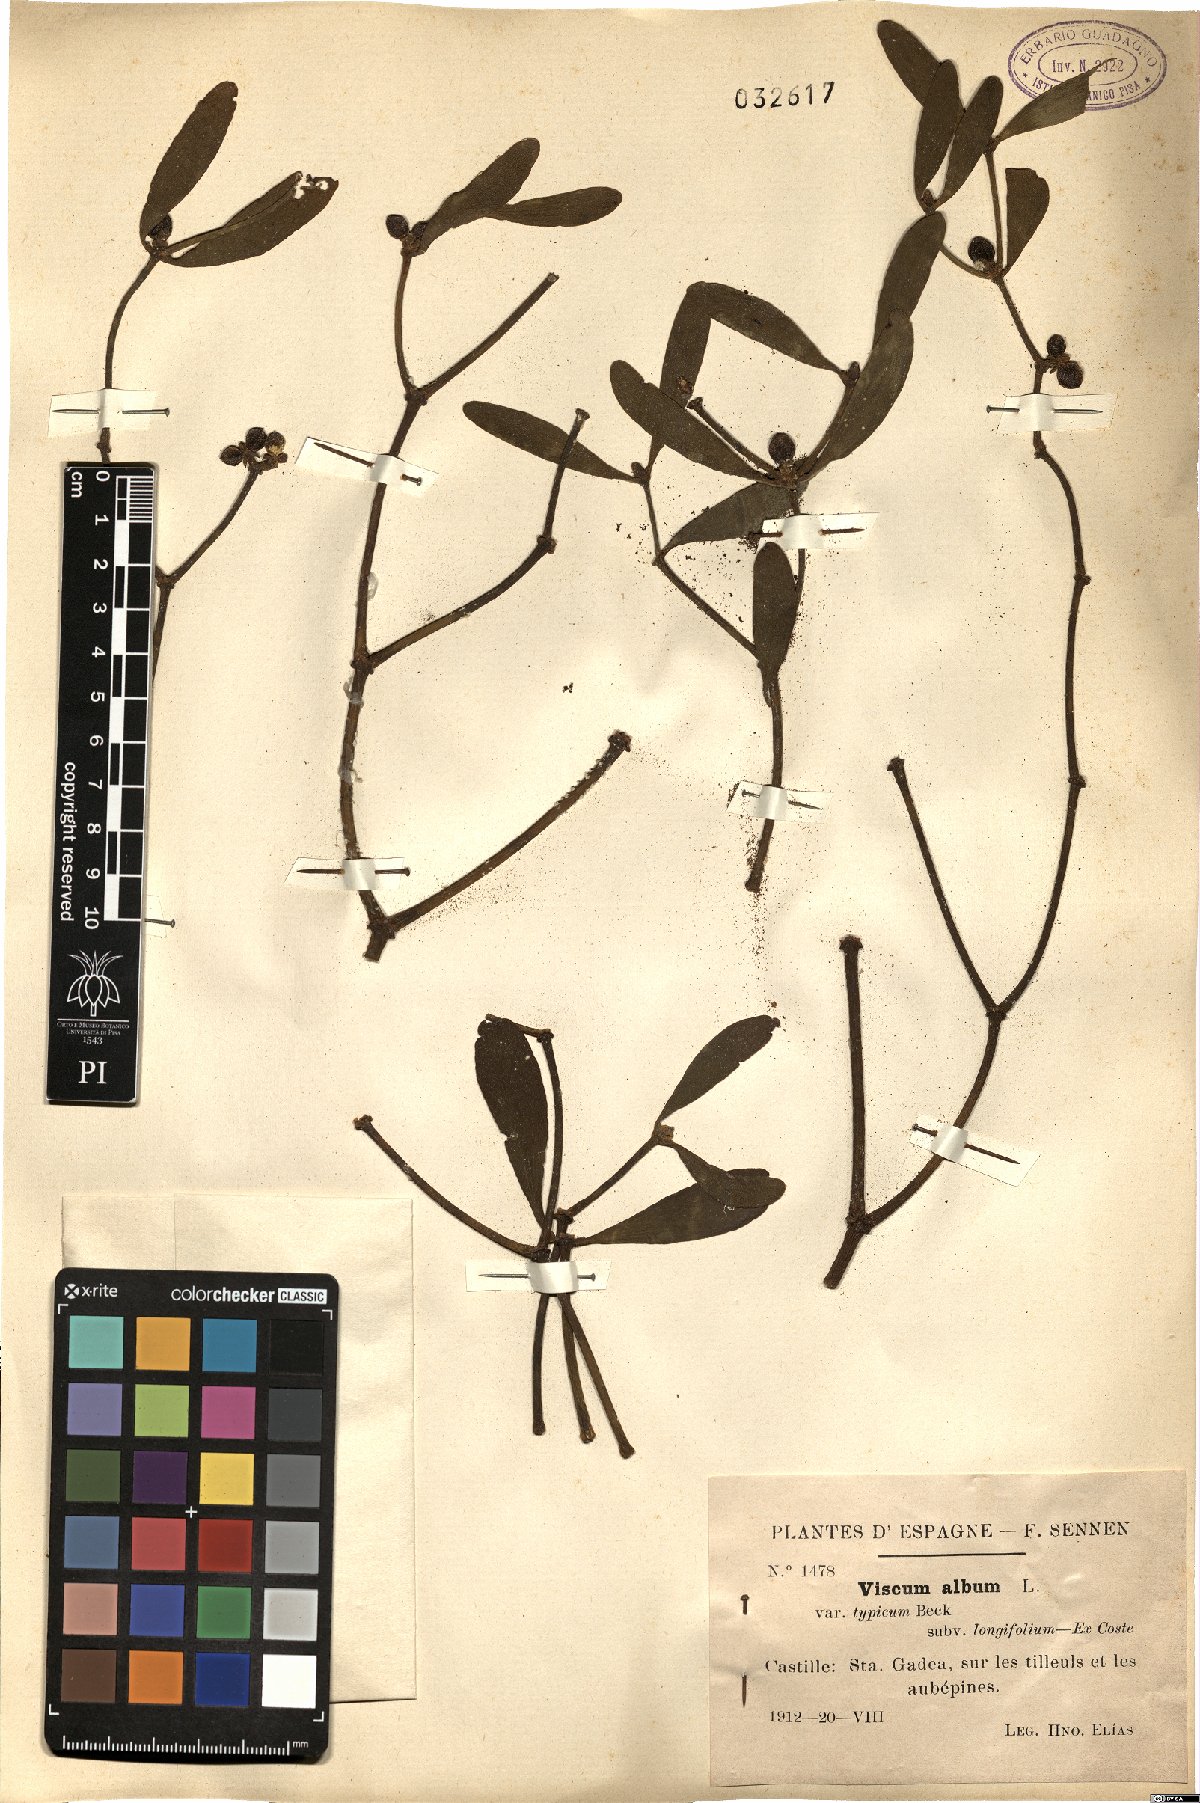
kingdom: Plantae
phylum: Tracheophyta
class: Magnoliopsida
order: Santalales
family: Viscaceae
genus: Viscum
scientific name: Viscum album
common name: Mistletoe
